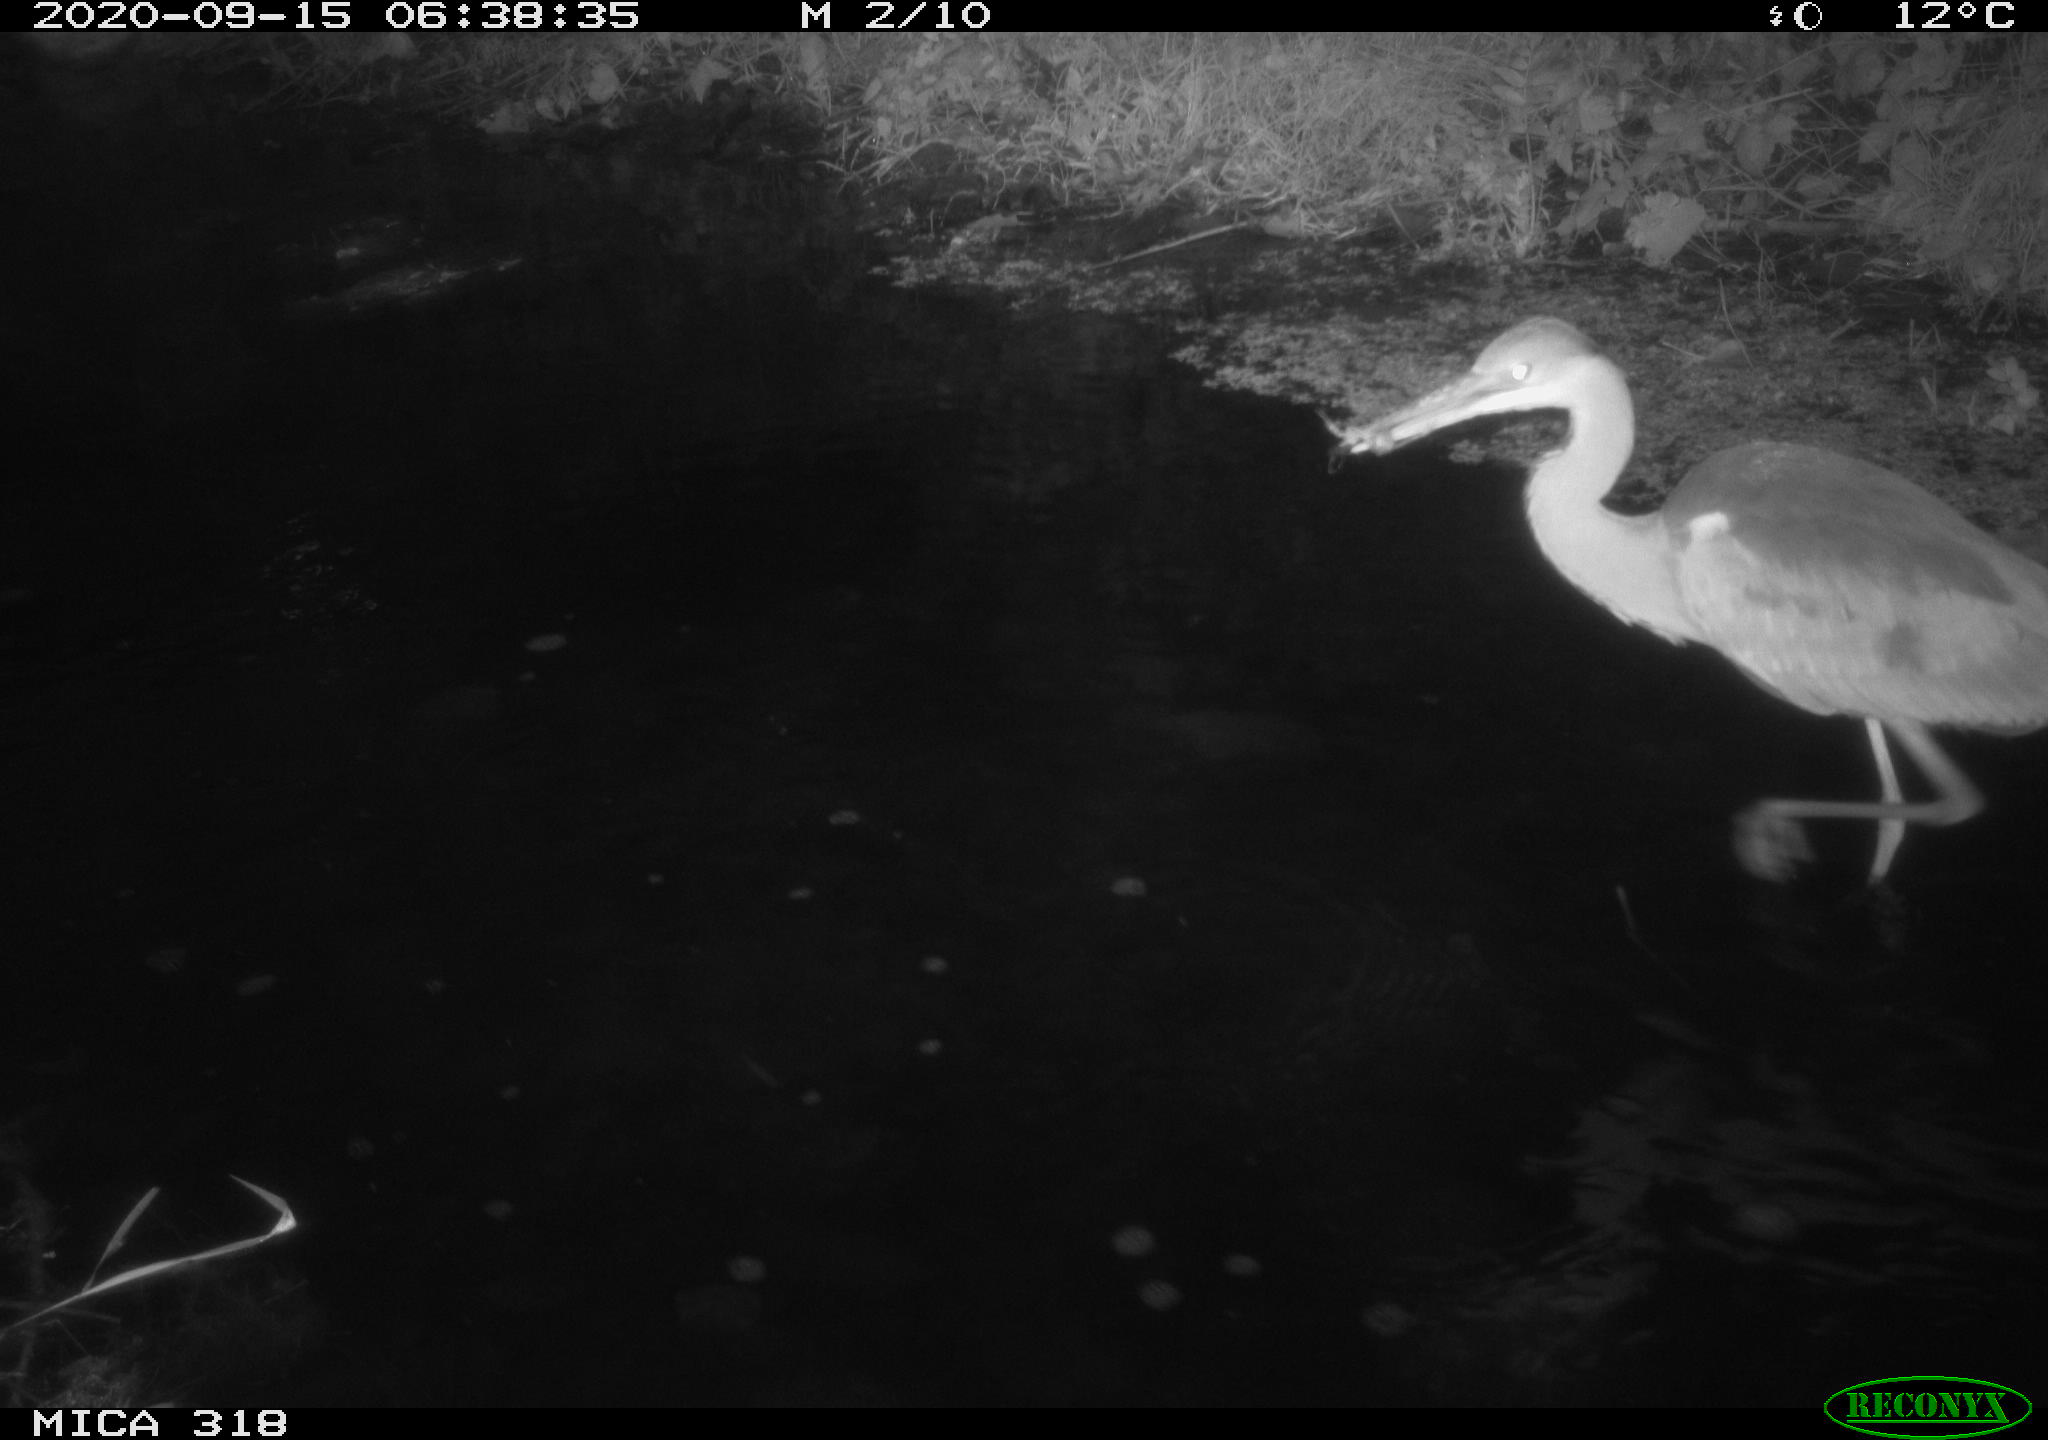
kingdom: Animalia
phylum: Chordata
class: Aves
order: Pelecaniformes
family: Ardeidae
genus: Ardea
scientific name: Ardea
